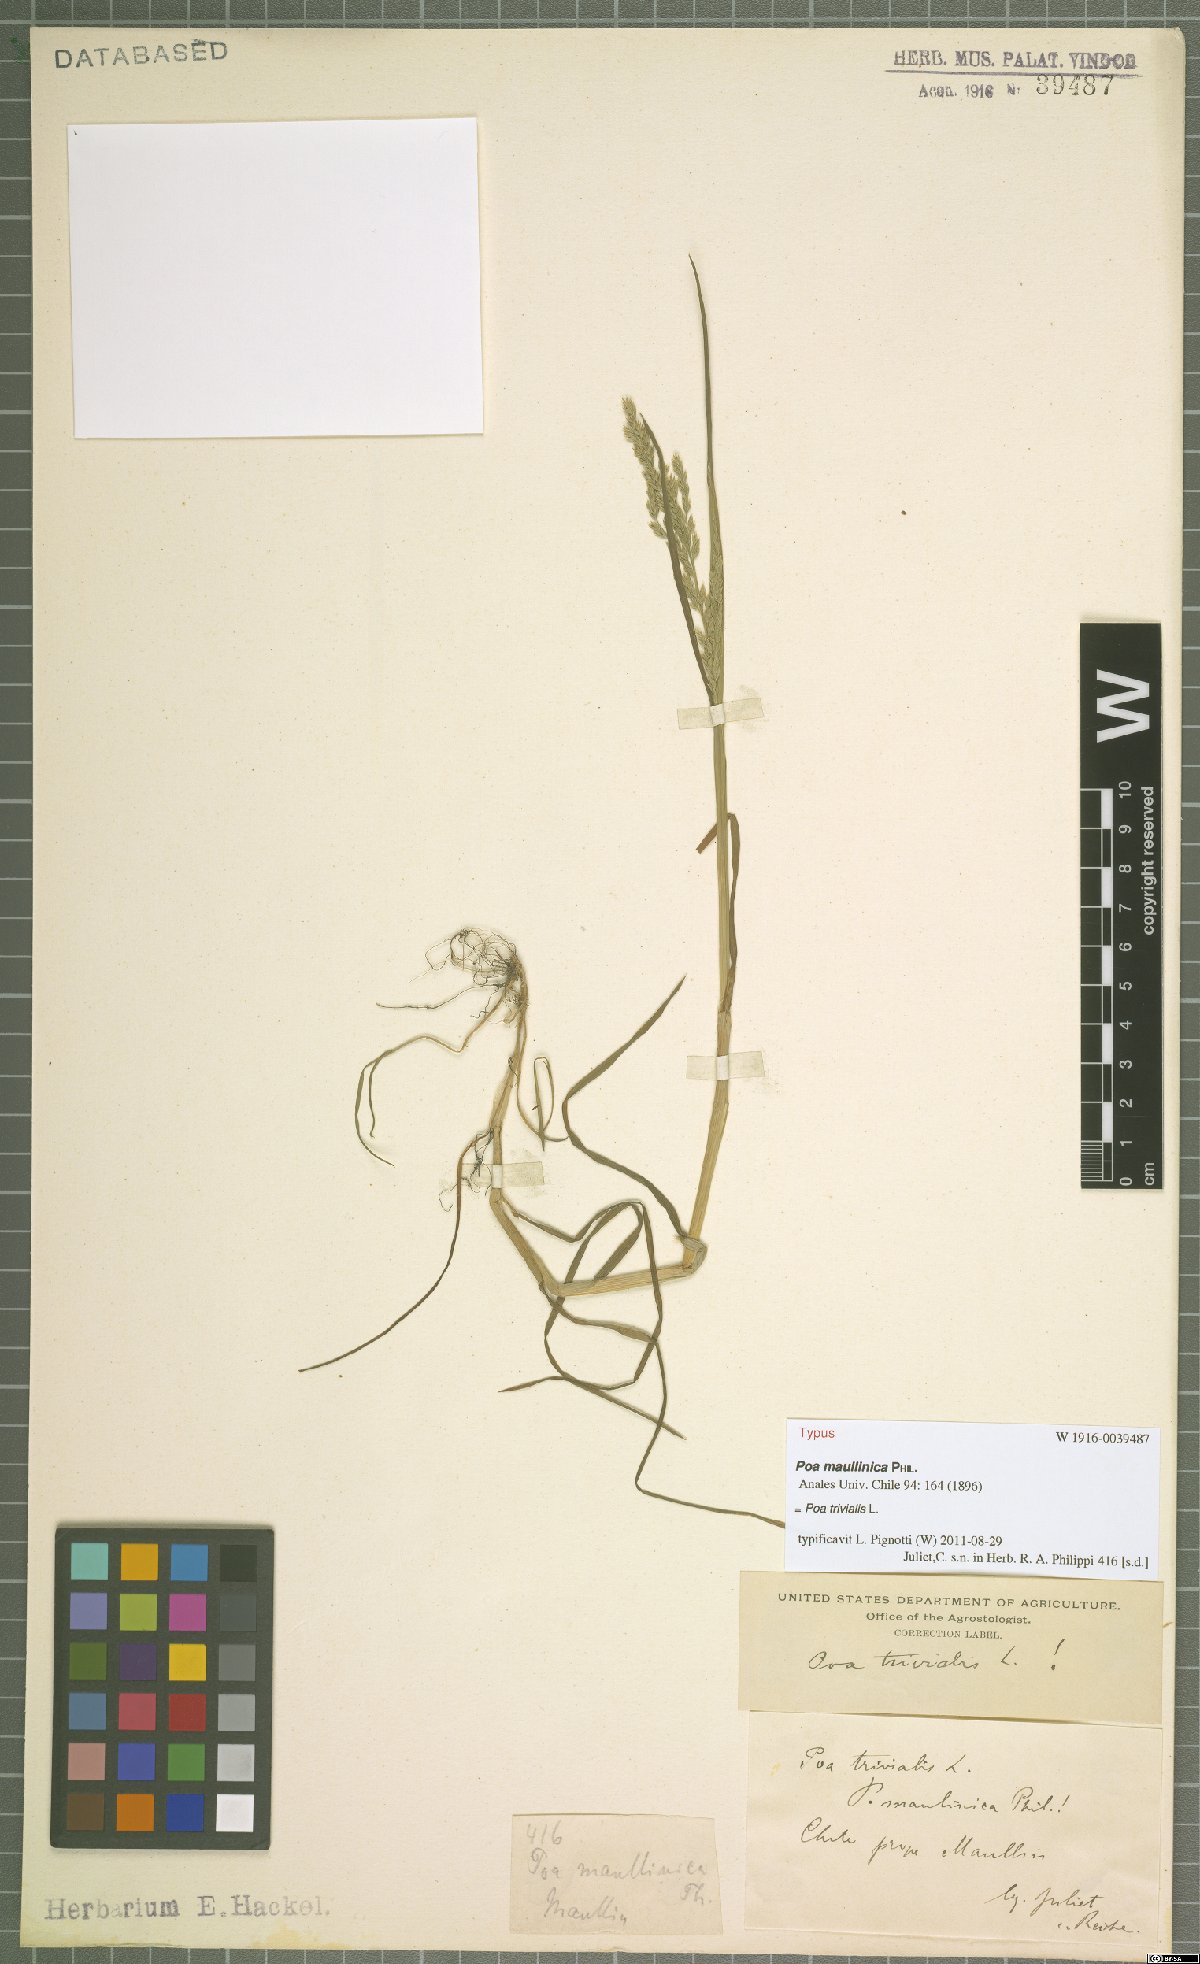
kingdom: Plantae
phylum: Tracheophyta
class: Liliopsida
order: Poales
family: Poaceae
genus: Poa
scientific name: Poa trivialis
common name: Rough bluegrass
